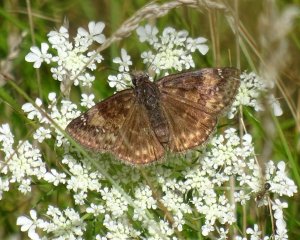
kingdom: Animalia
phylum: Arthropoda
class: Insecta
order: Lepidoptera
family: Hesperiidae
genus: Gesta
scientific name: Gesta
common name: Wild Indigo Duskywing
